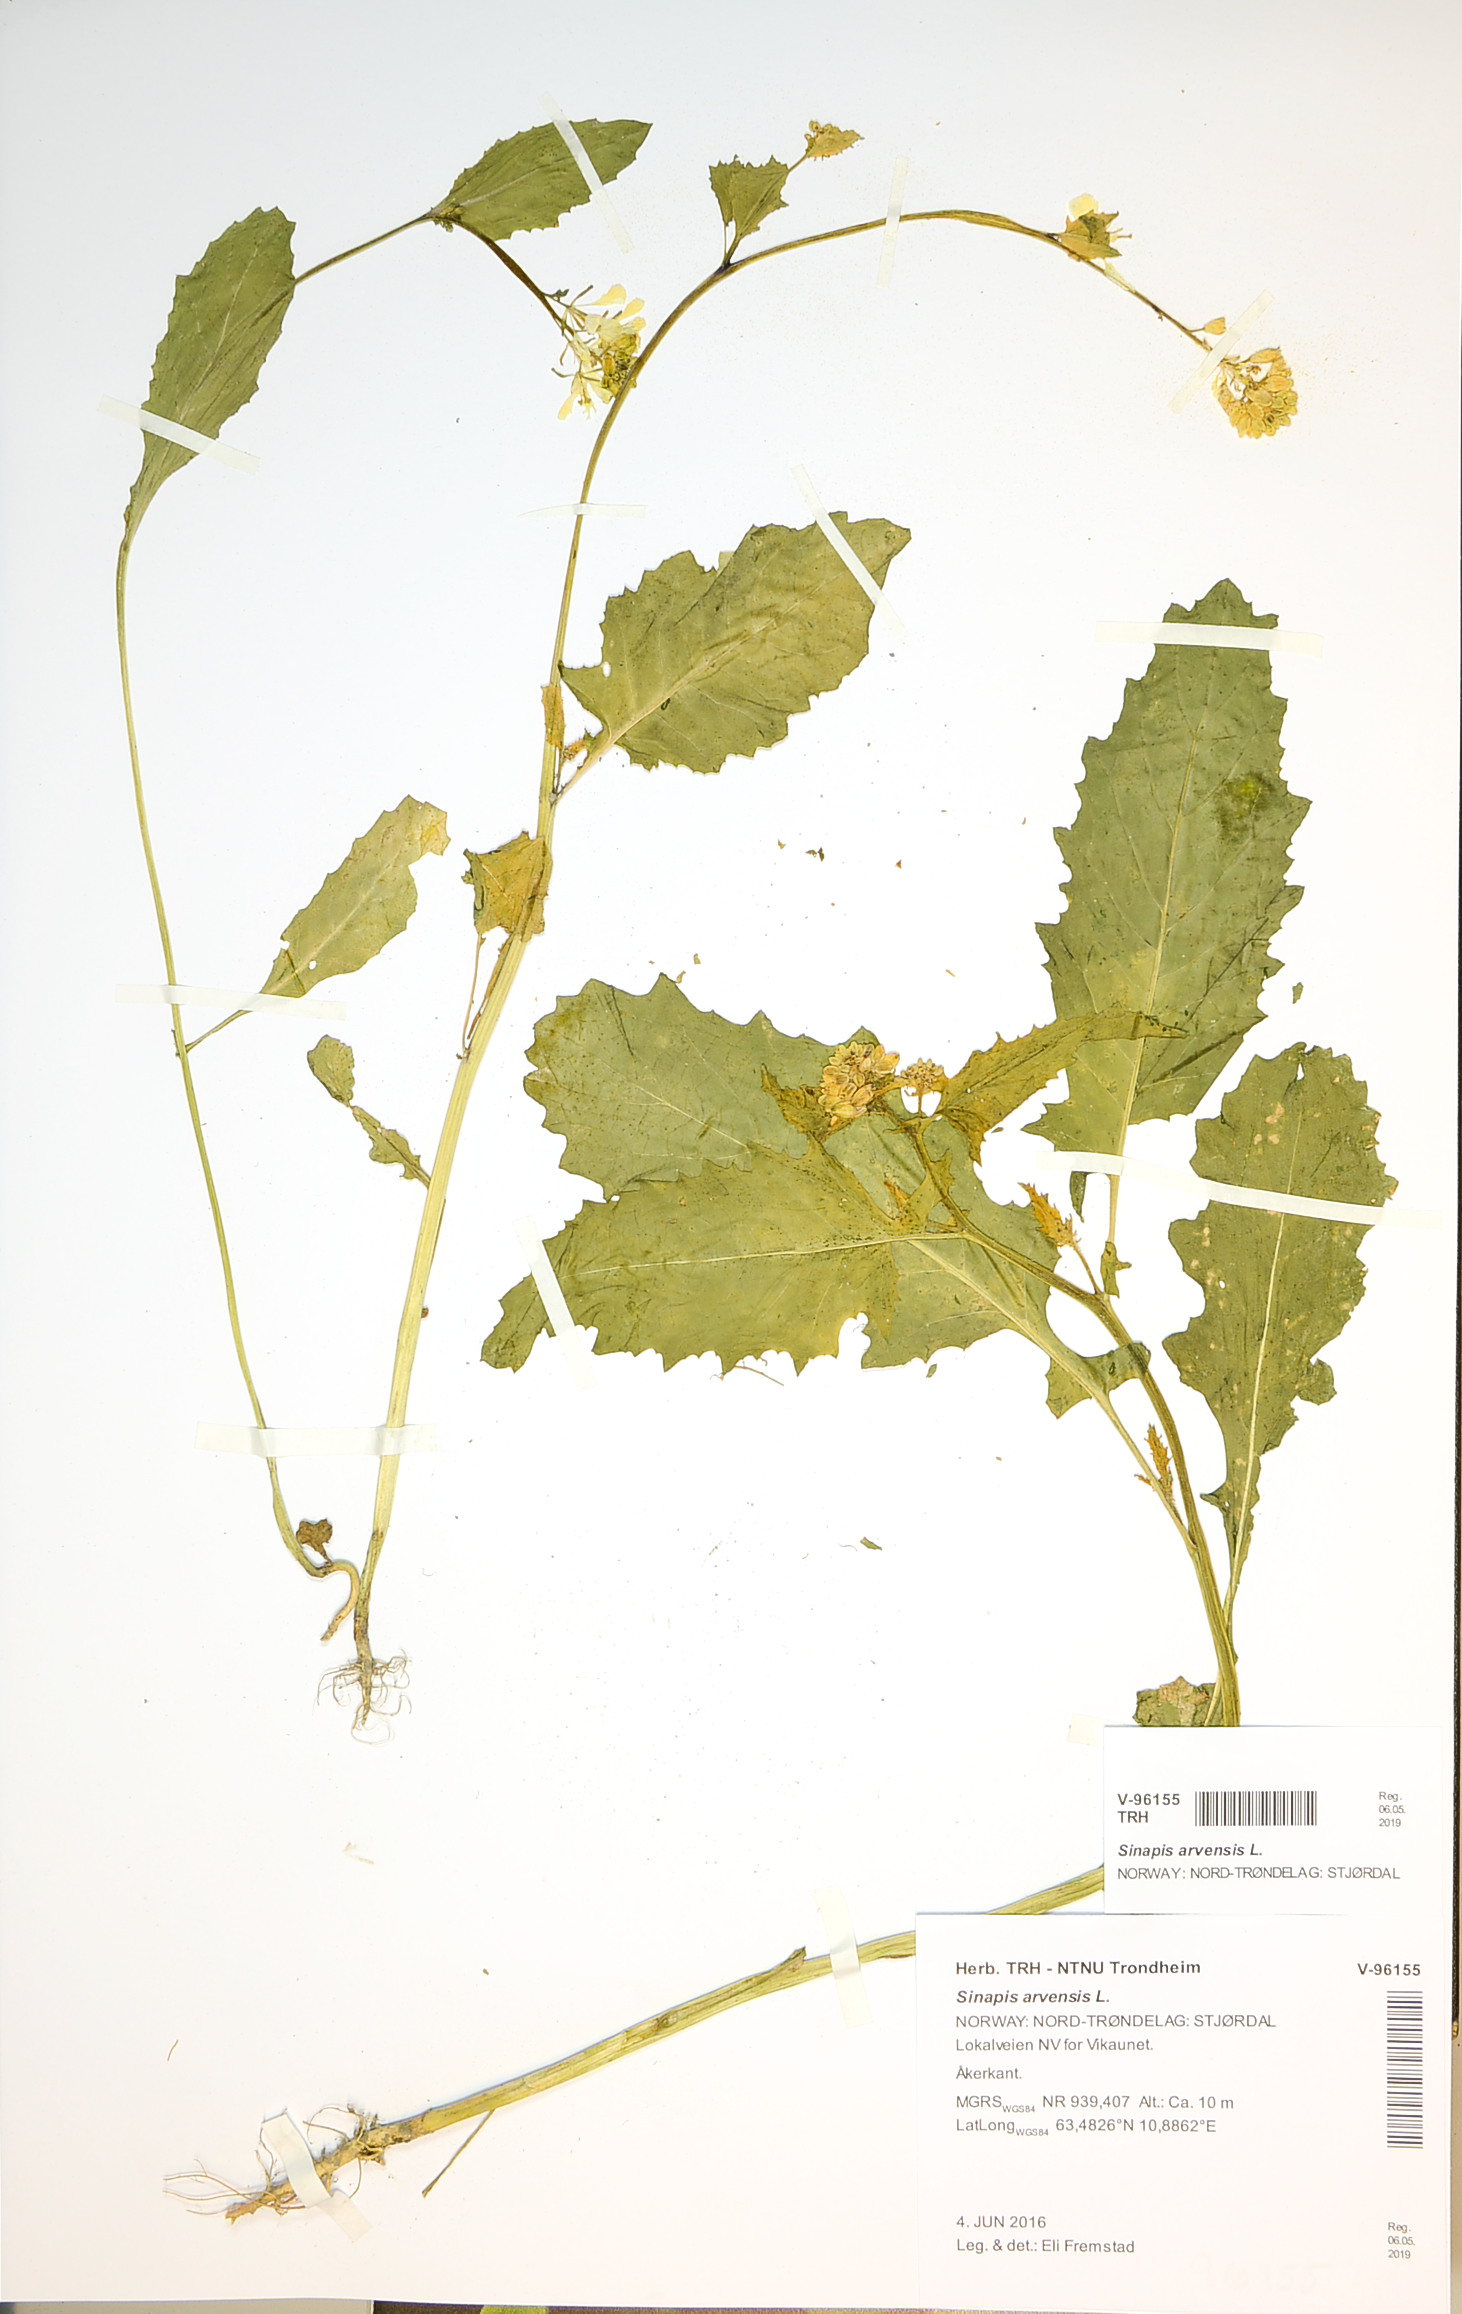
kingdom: Plantae
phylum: Tracheophyta
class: Magnoliopsida
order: Brassicales
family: Brassicaceae
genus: Sinapis
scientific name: Sinapis arvensis
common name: Charlock
